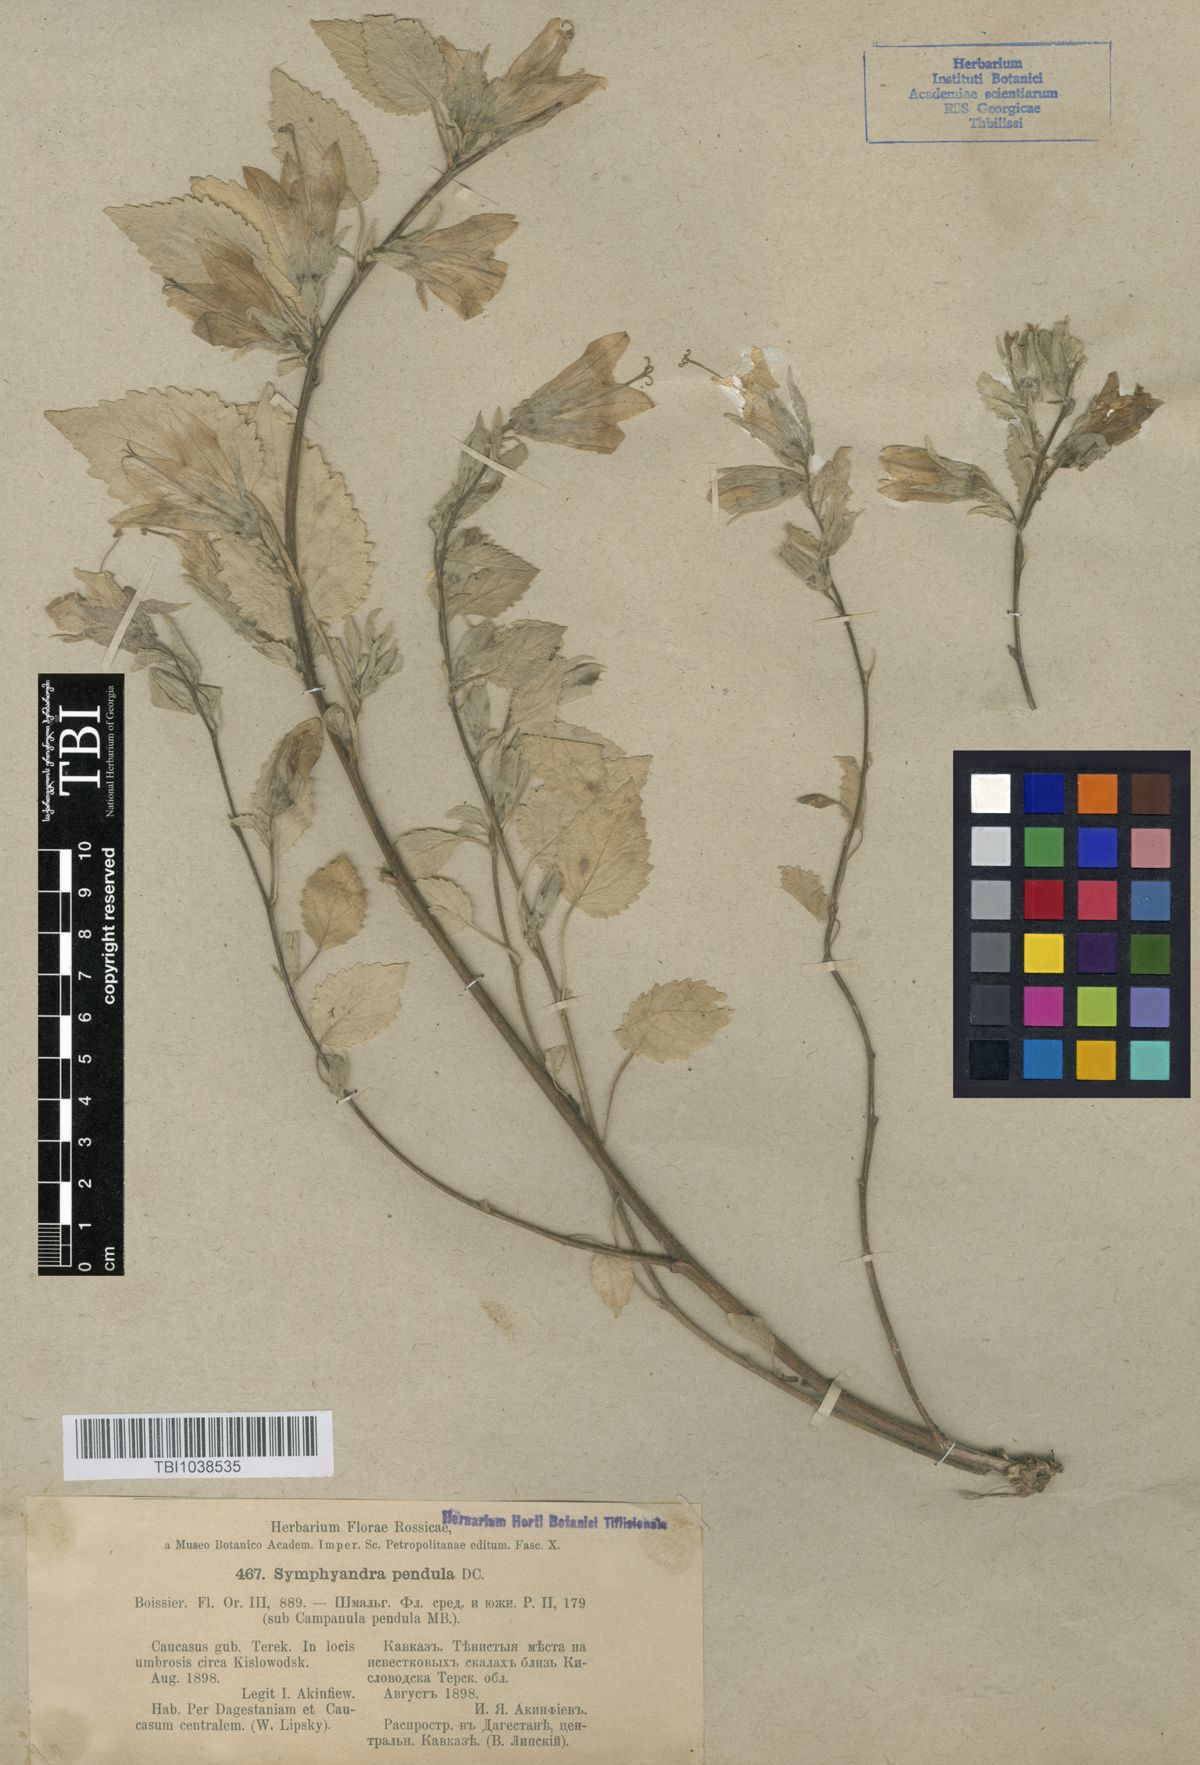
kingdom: Plantae
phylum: Tracheophyta
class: Magnoliopsida
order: Asterales
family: Campanulaceae
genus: Campanula
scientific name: Campanula pendula
